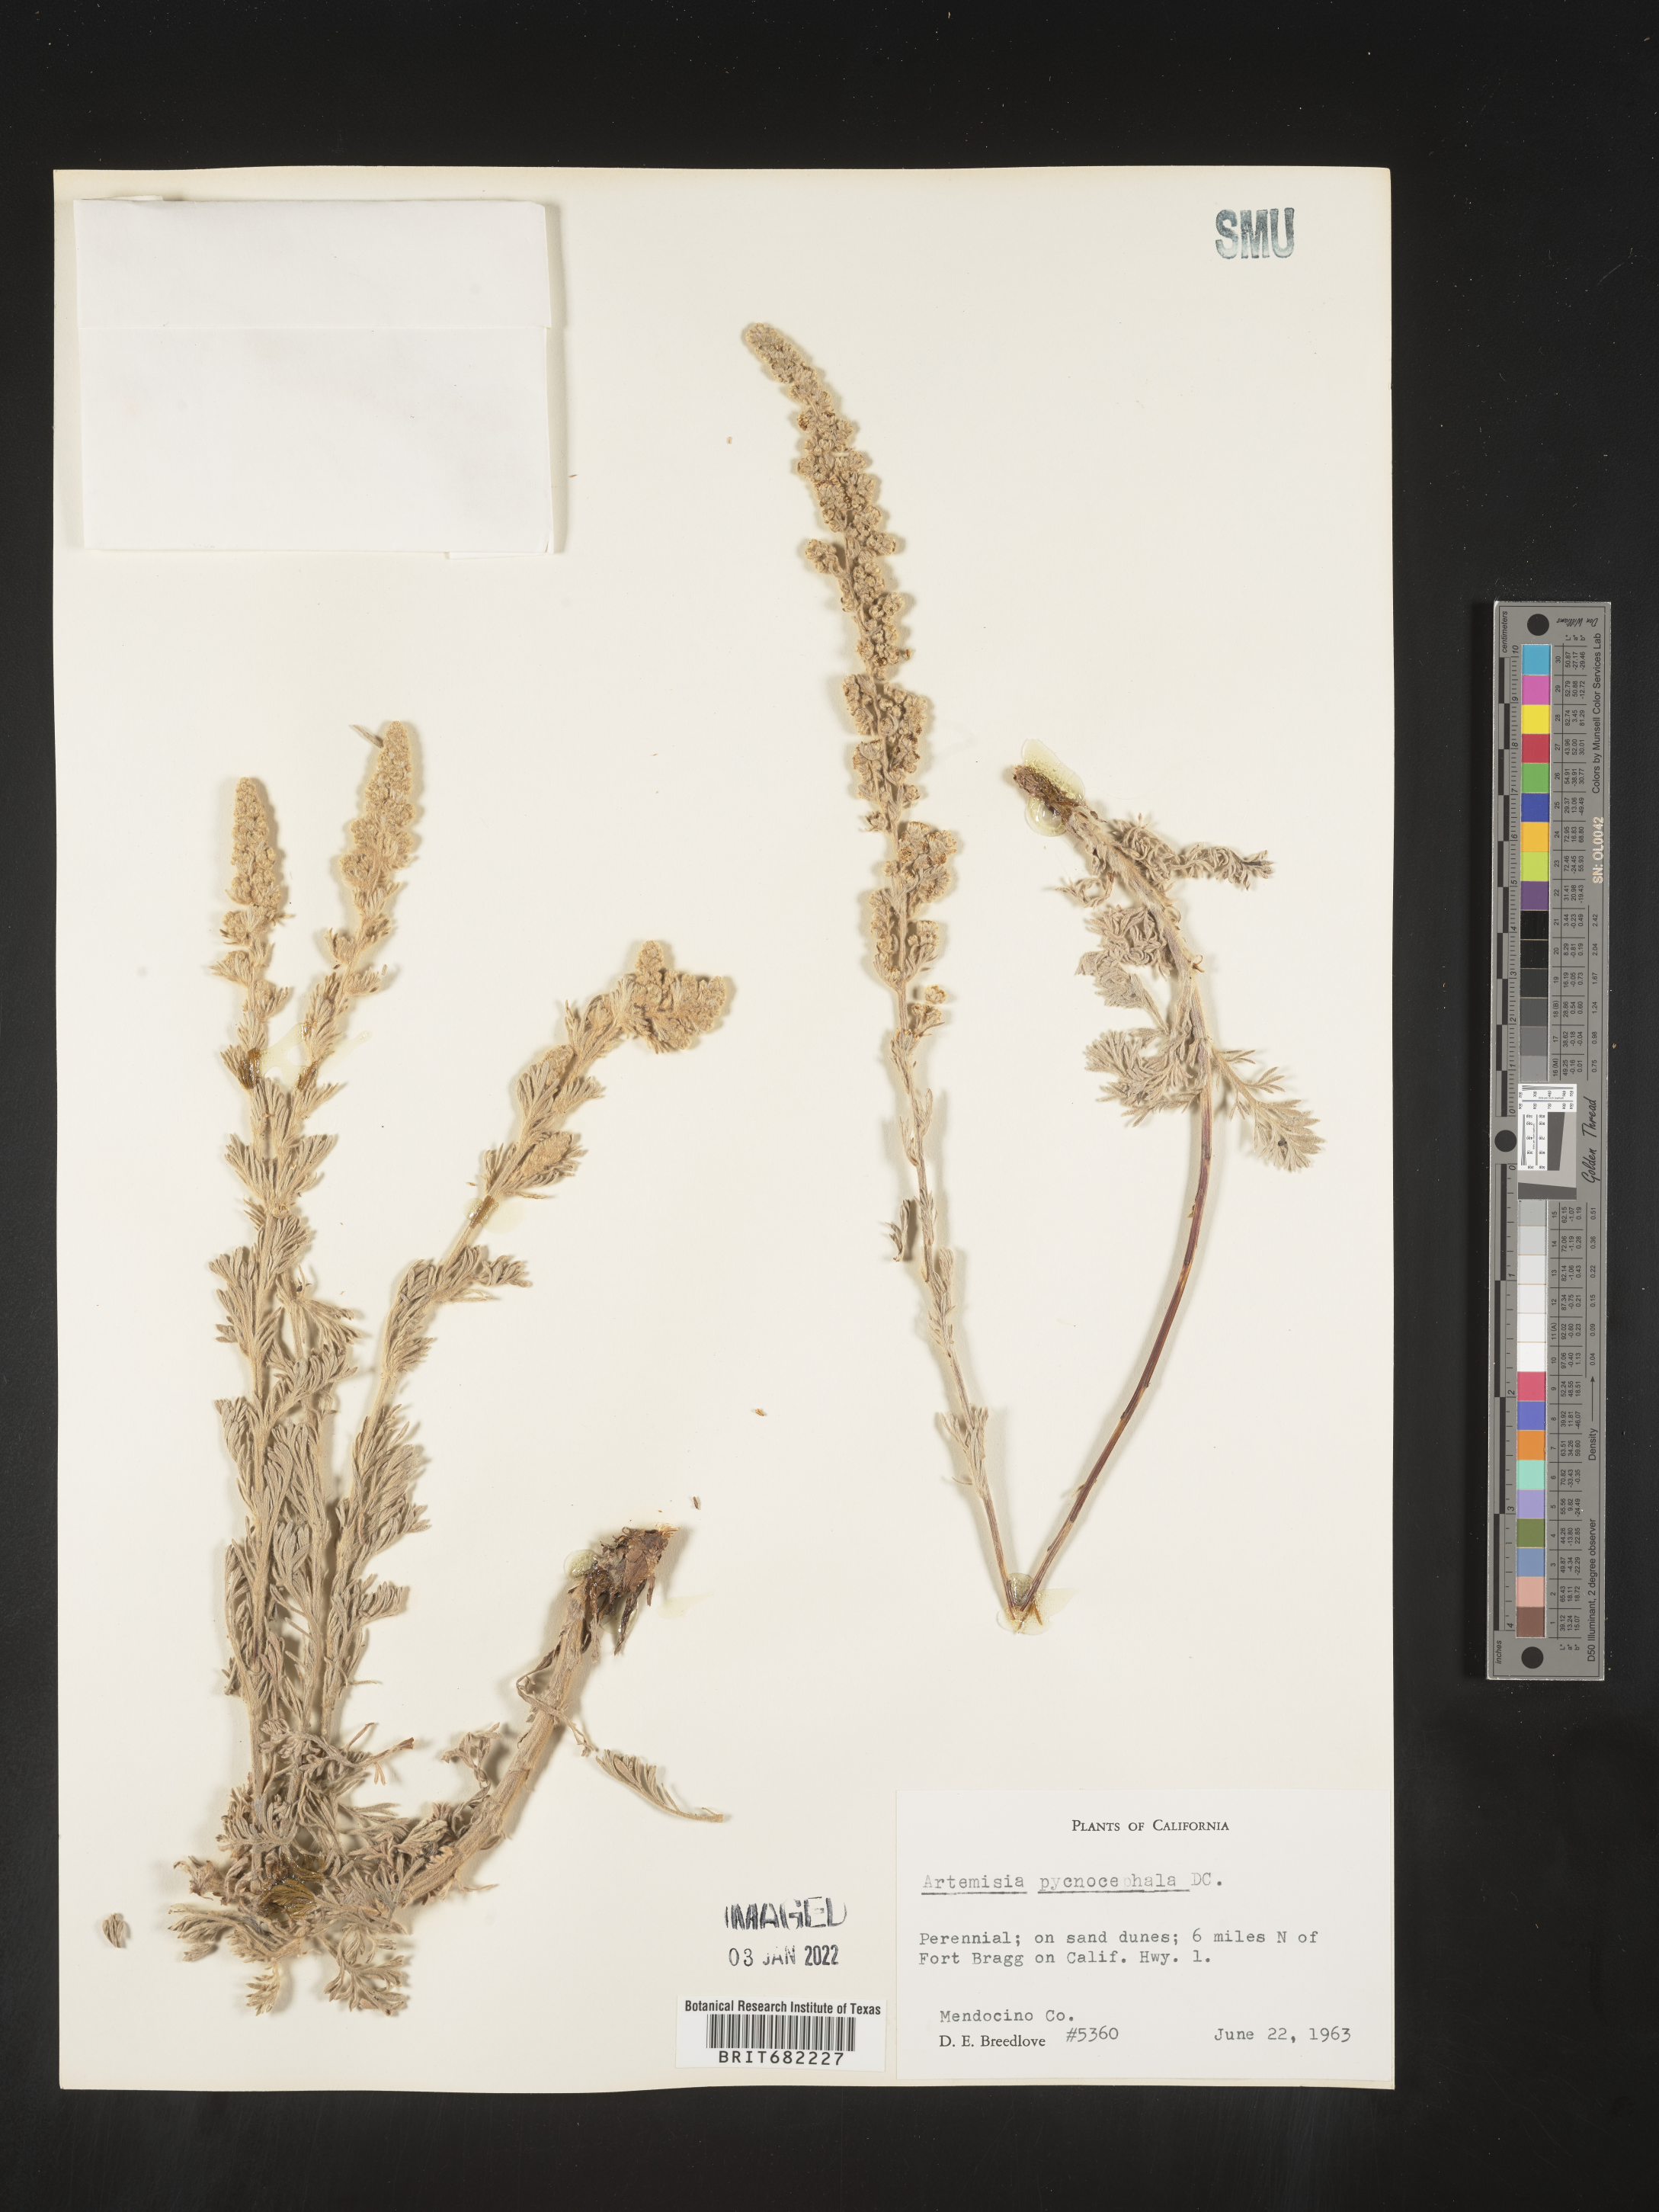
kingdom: Plantae
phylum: Tracheophyta
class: Magnoliopsida
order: Asterales
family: Asteraceae
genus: Artemisia
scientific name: Artemisia pycnocephala
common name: Coastal sagewort
